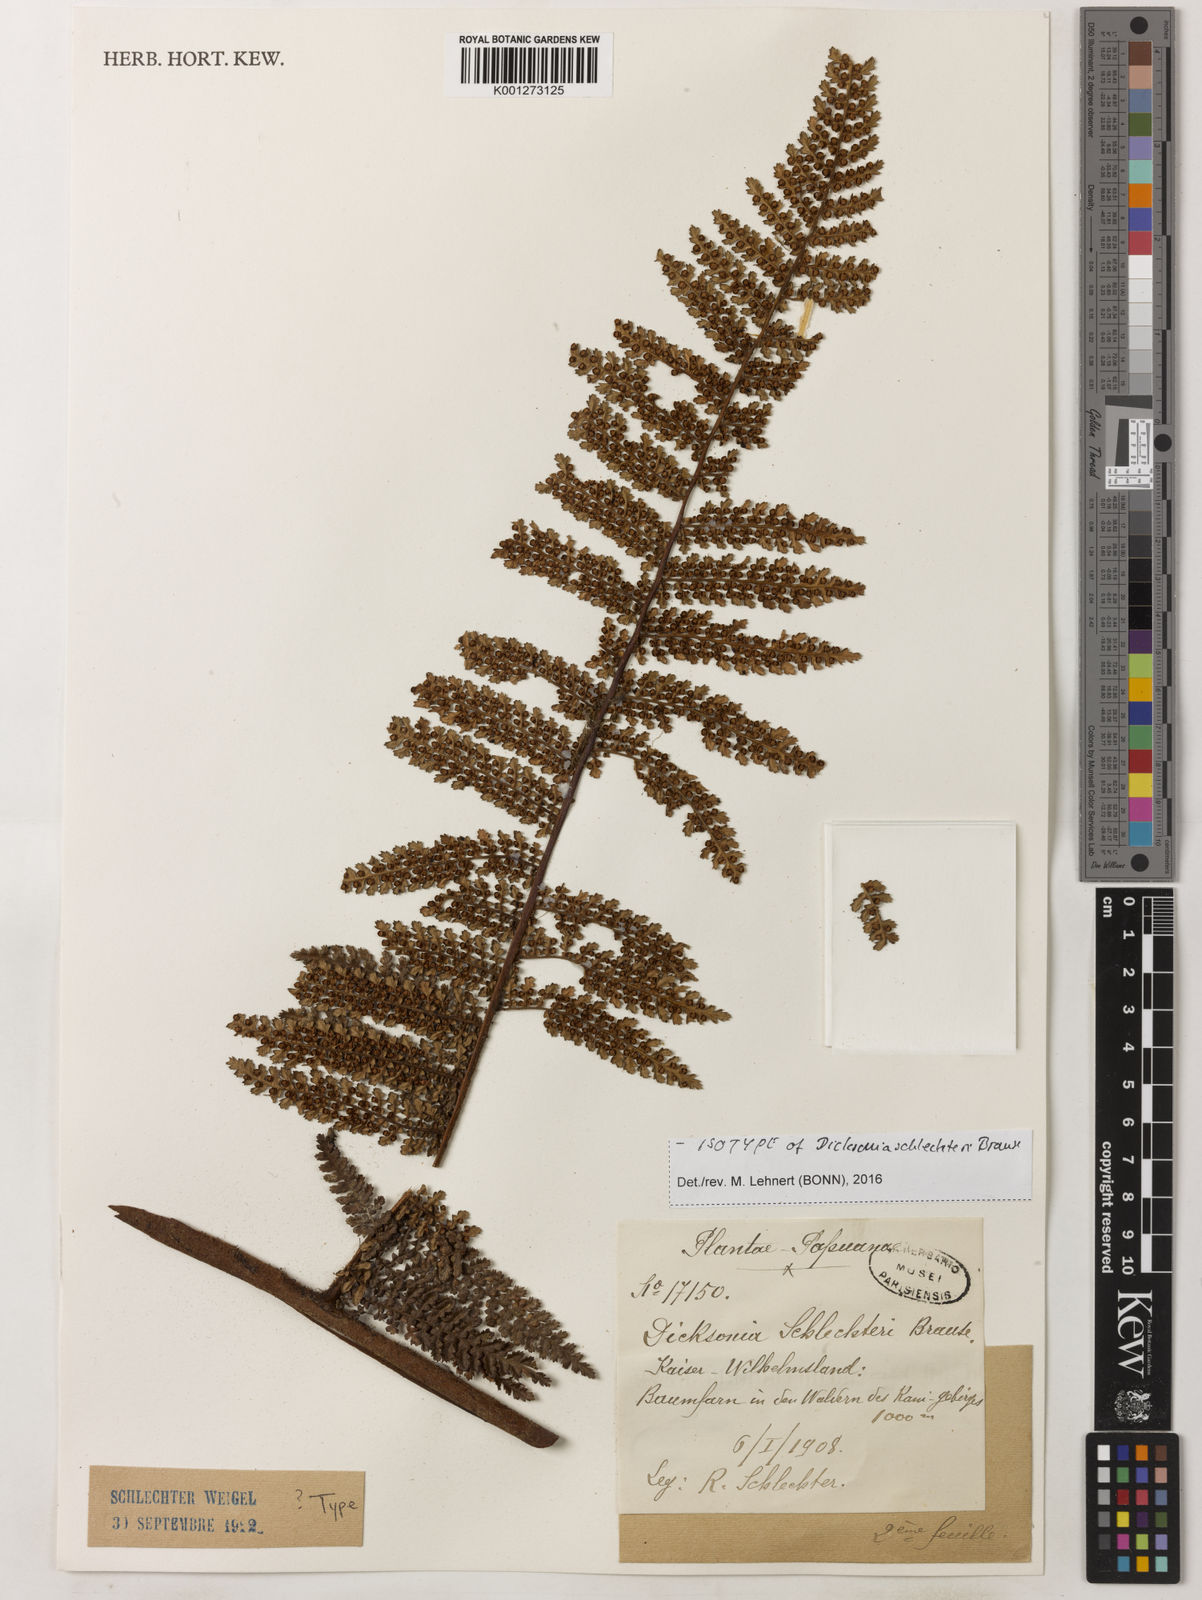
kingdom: Plantae
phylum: Tracheophyta
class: Polypodiopsida
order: Cyatheales
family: Dicksoniaceae
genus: Dicksonia
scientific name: Dicksonia schlechteri
